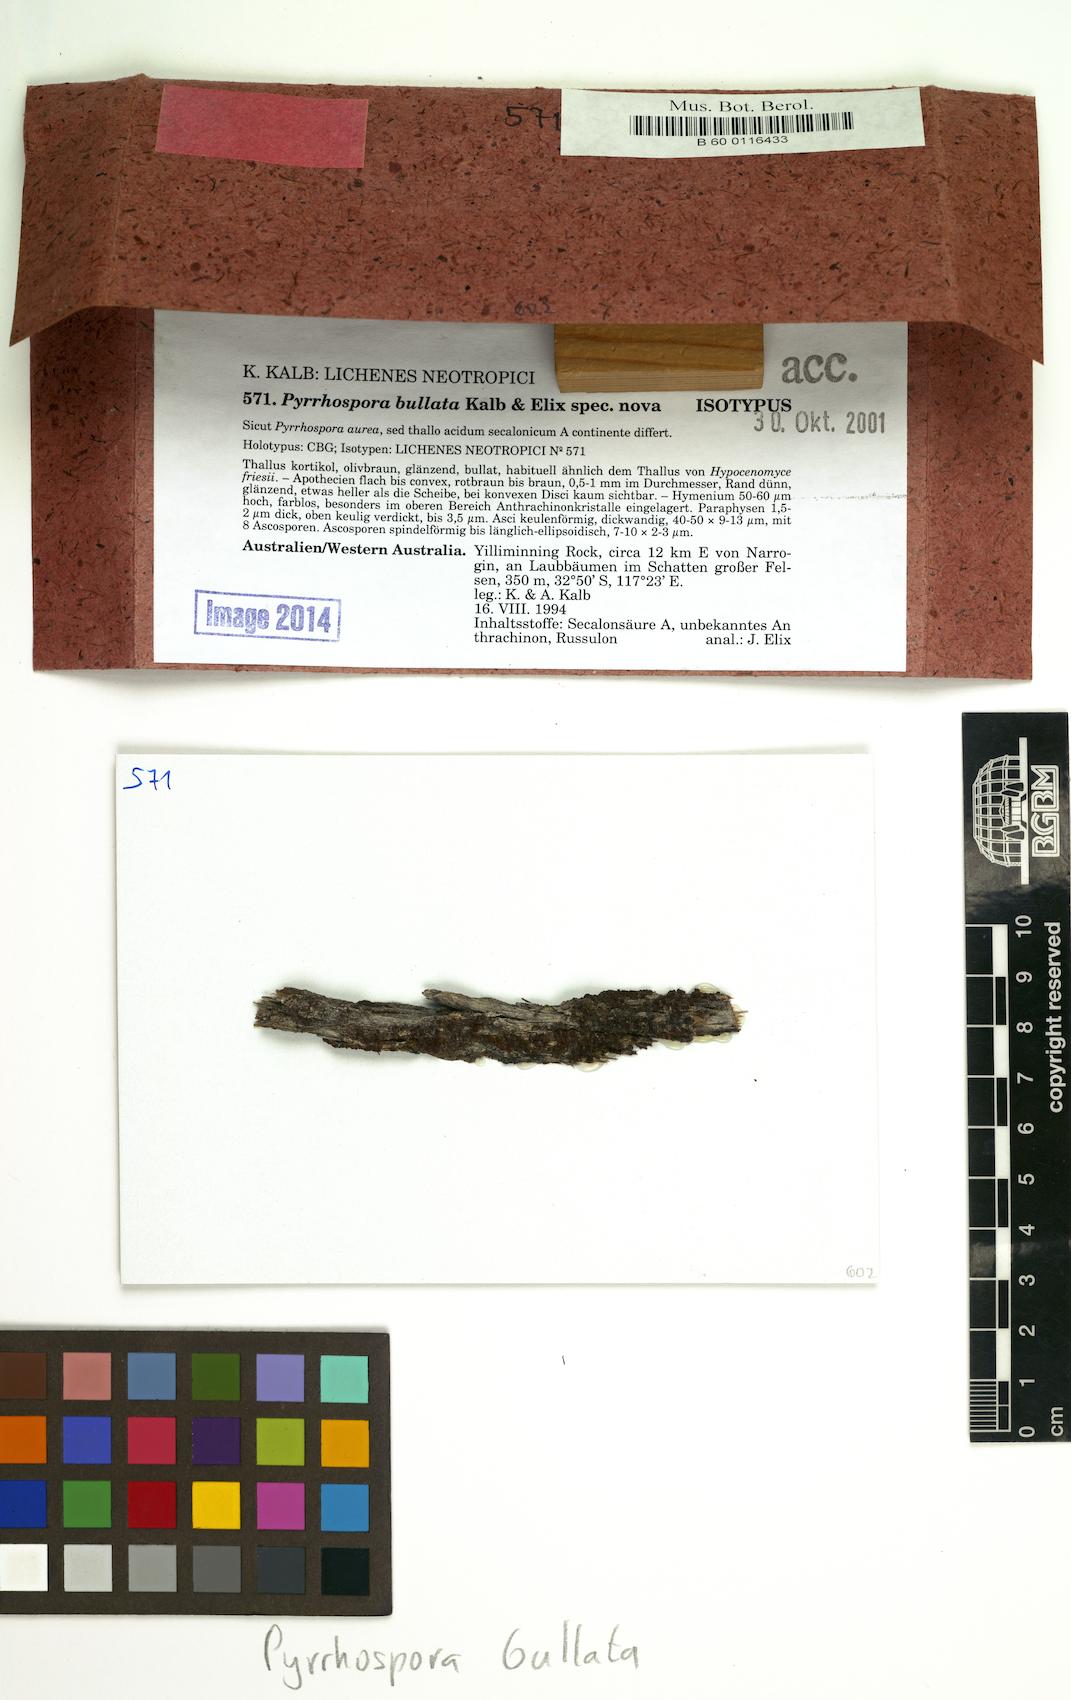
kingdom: Fungi
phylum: Ascomycota
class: Lecanoromycetes
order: Lecanorales
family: Ramboldiaceae
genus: Ramboldia
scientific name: Ramboldia bullata
